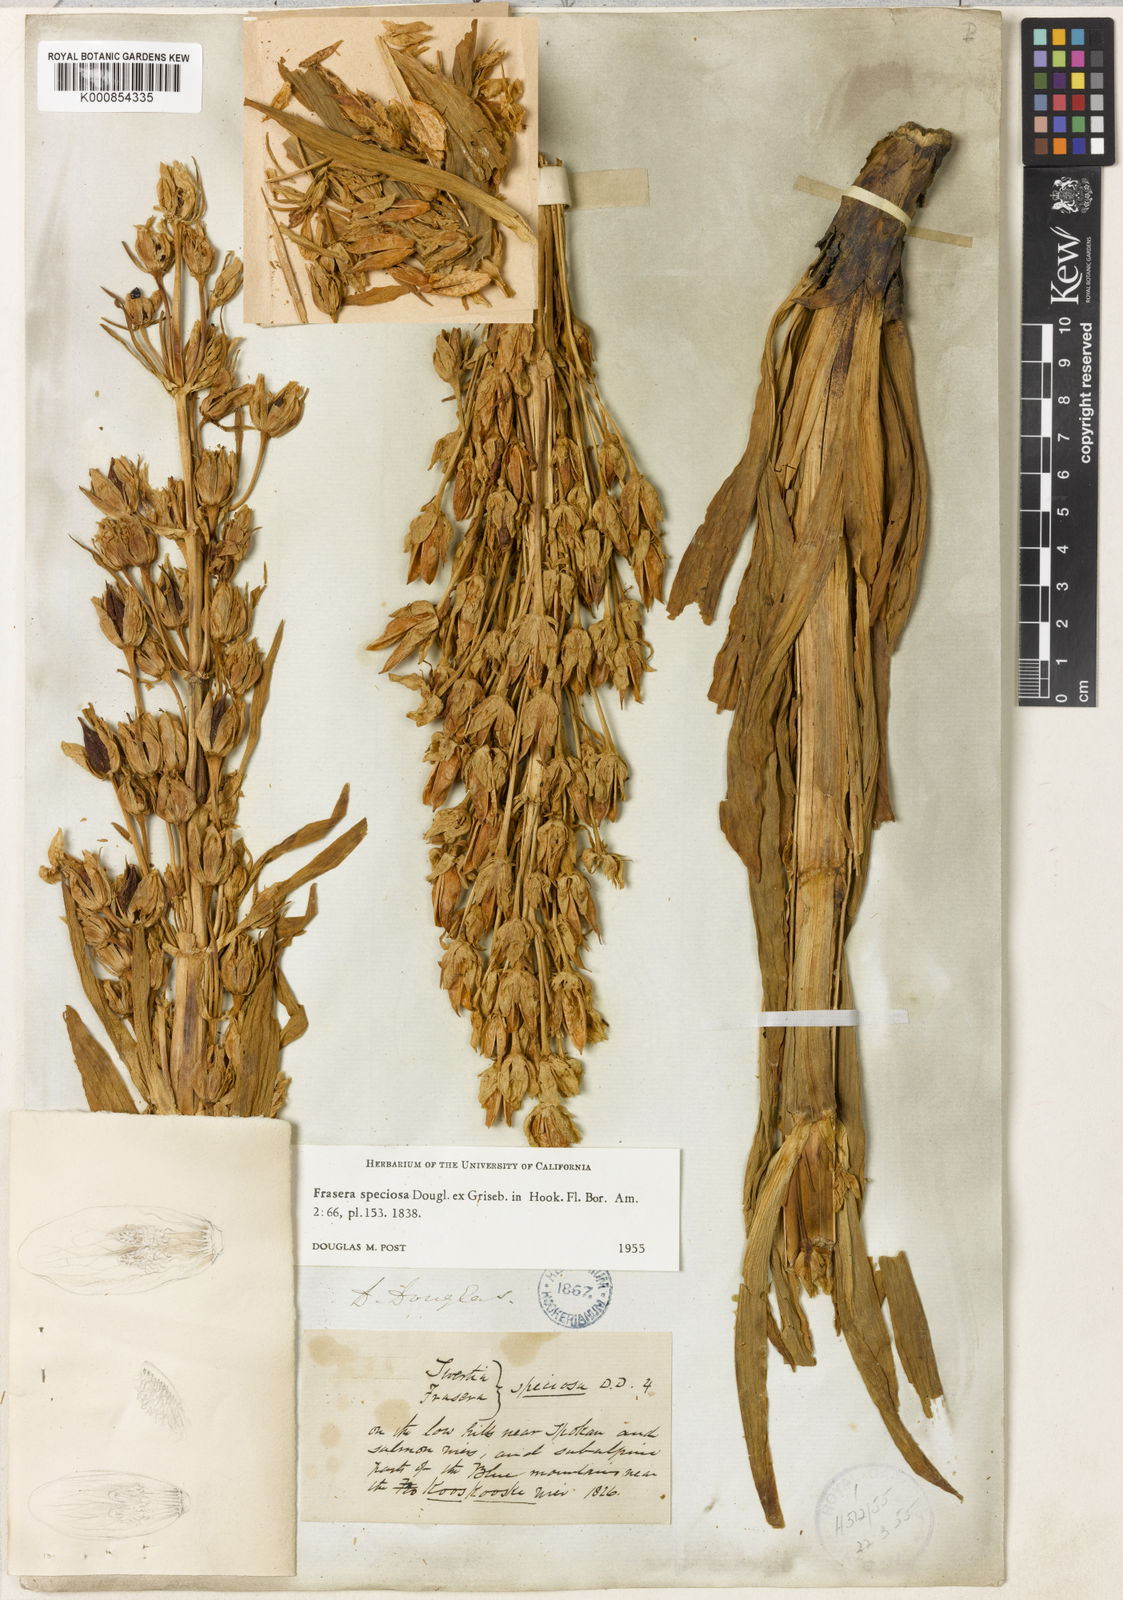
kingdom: Plantae
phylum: Tracheophyta
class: Magnoliopsida
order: Gentianales
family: Gentianaceae
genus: Frasera
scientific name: Frasera
